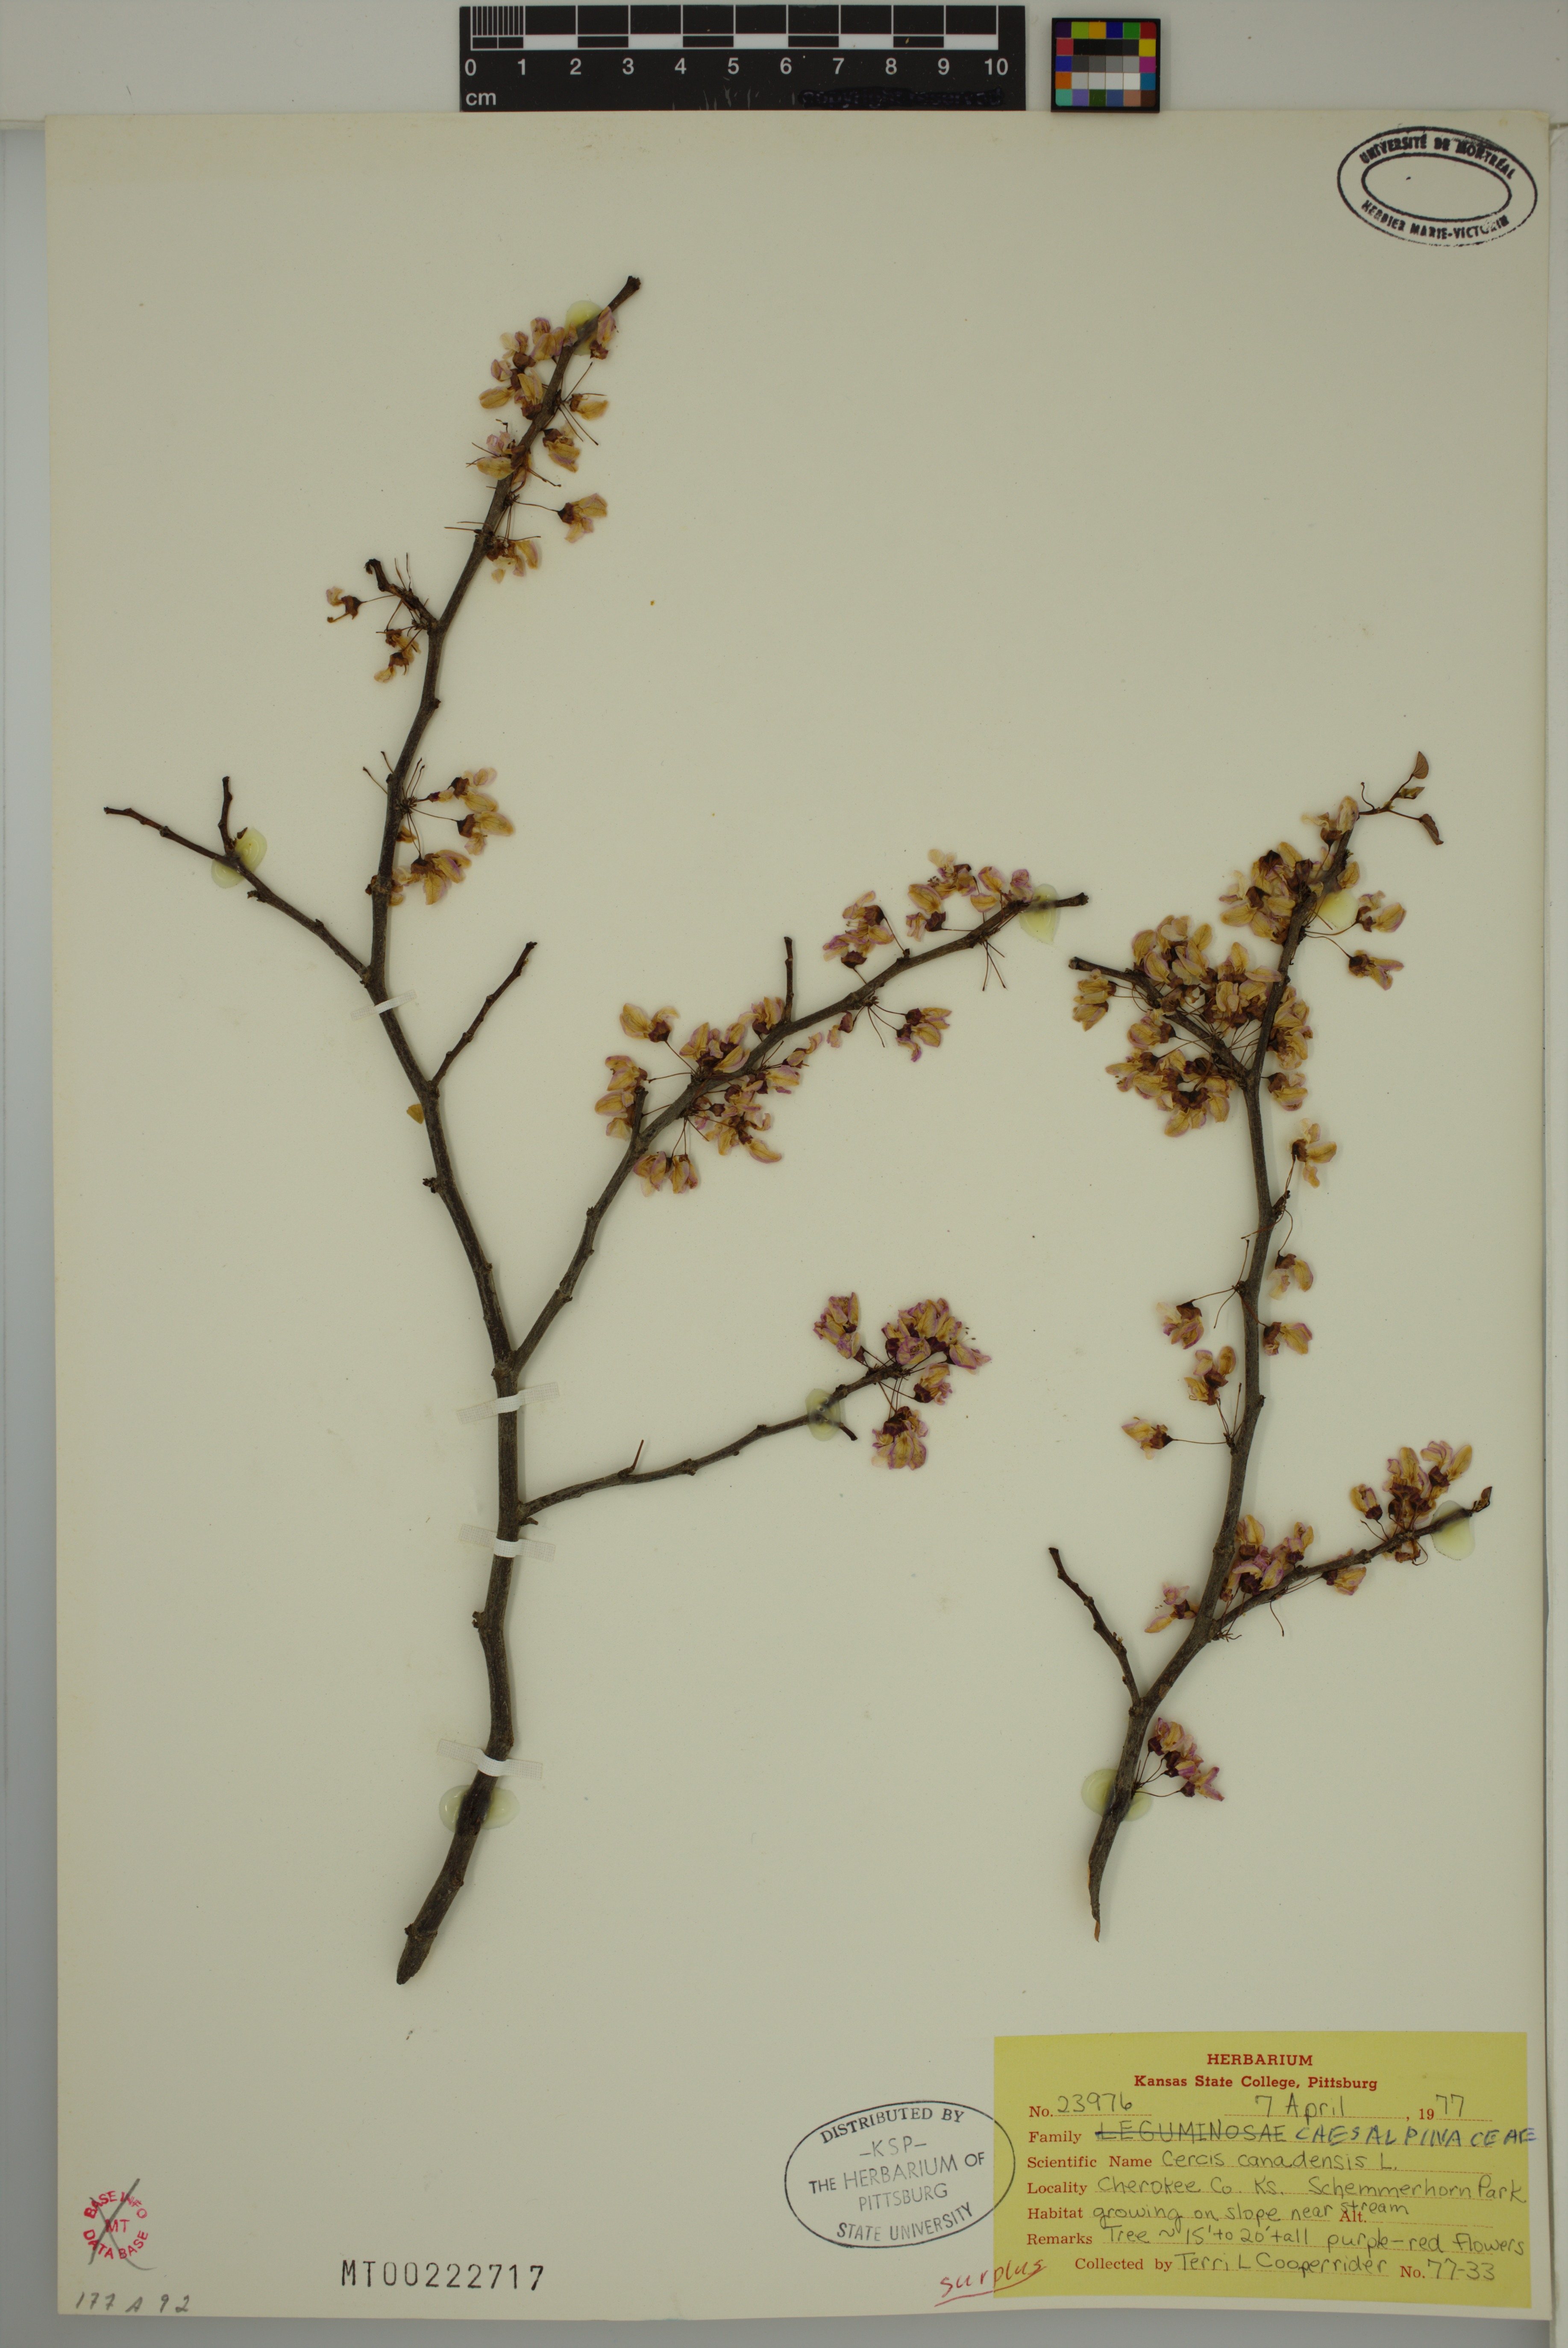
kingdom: Plantae
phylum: Tracheophyta
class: Magnoliopsida
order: Fabales
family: Fabaceae
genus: Cercis
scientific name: Cercis canadensis
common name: Eastern redbud
